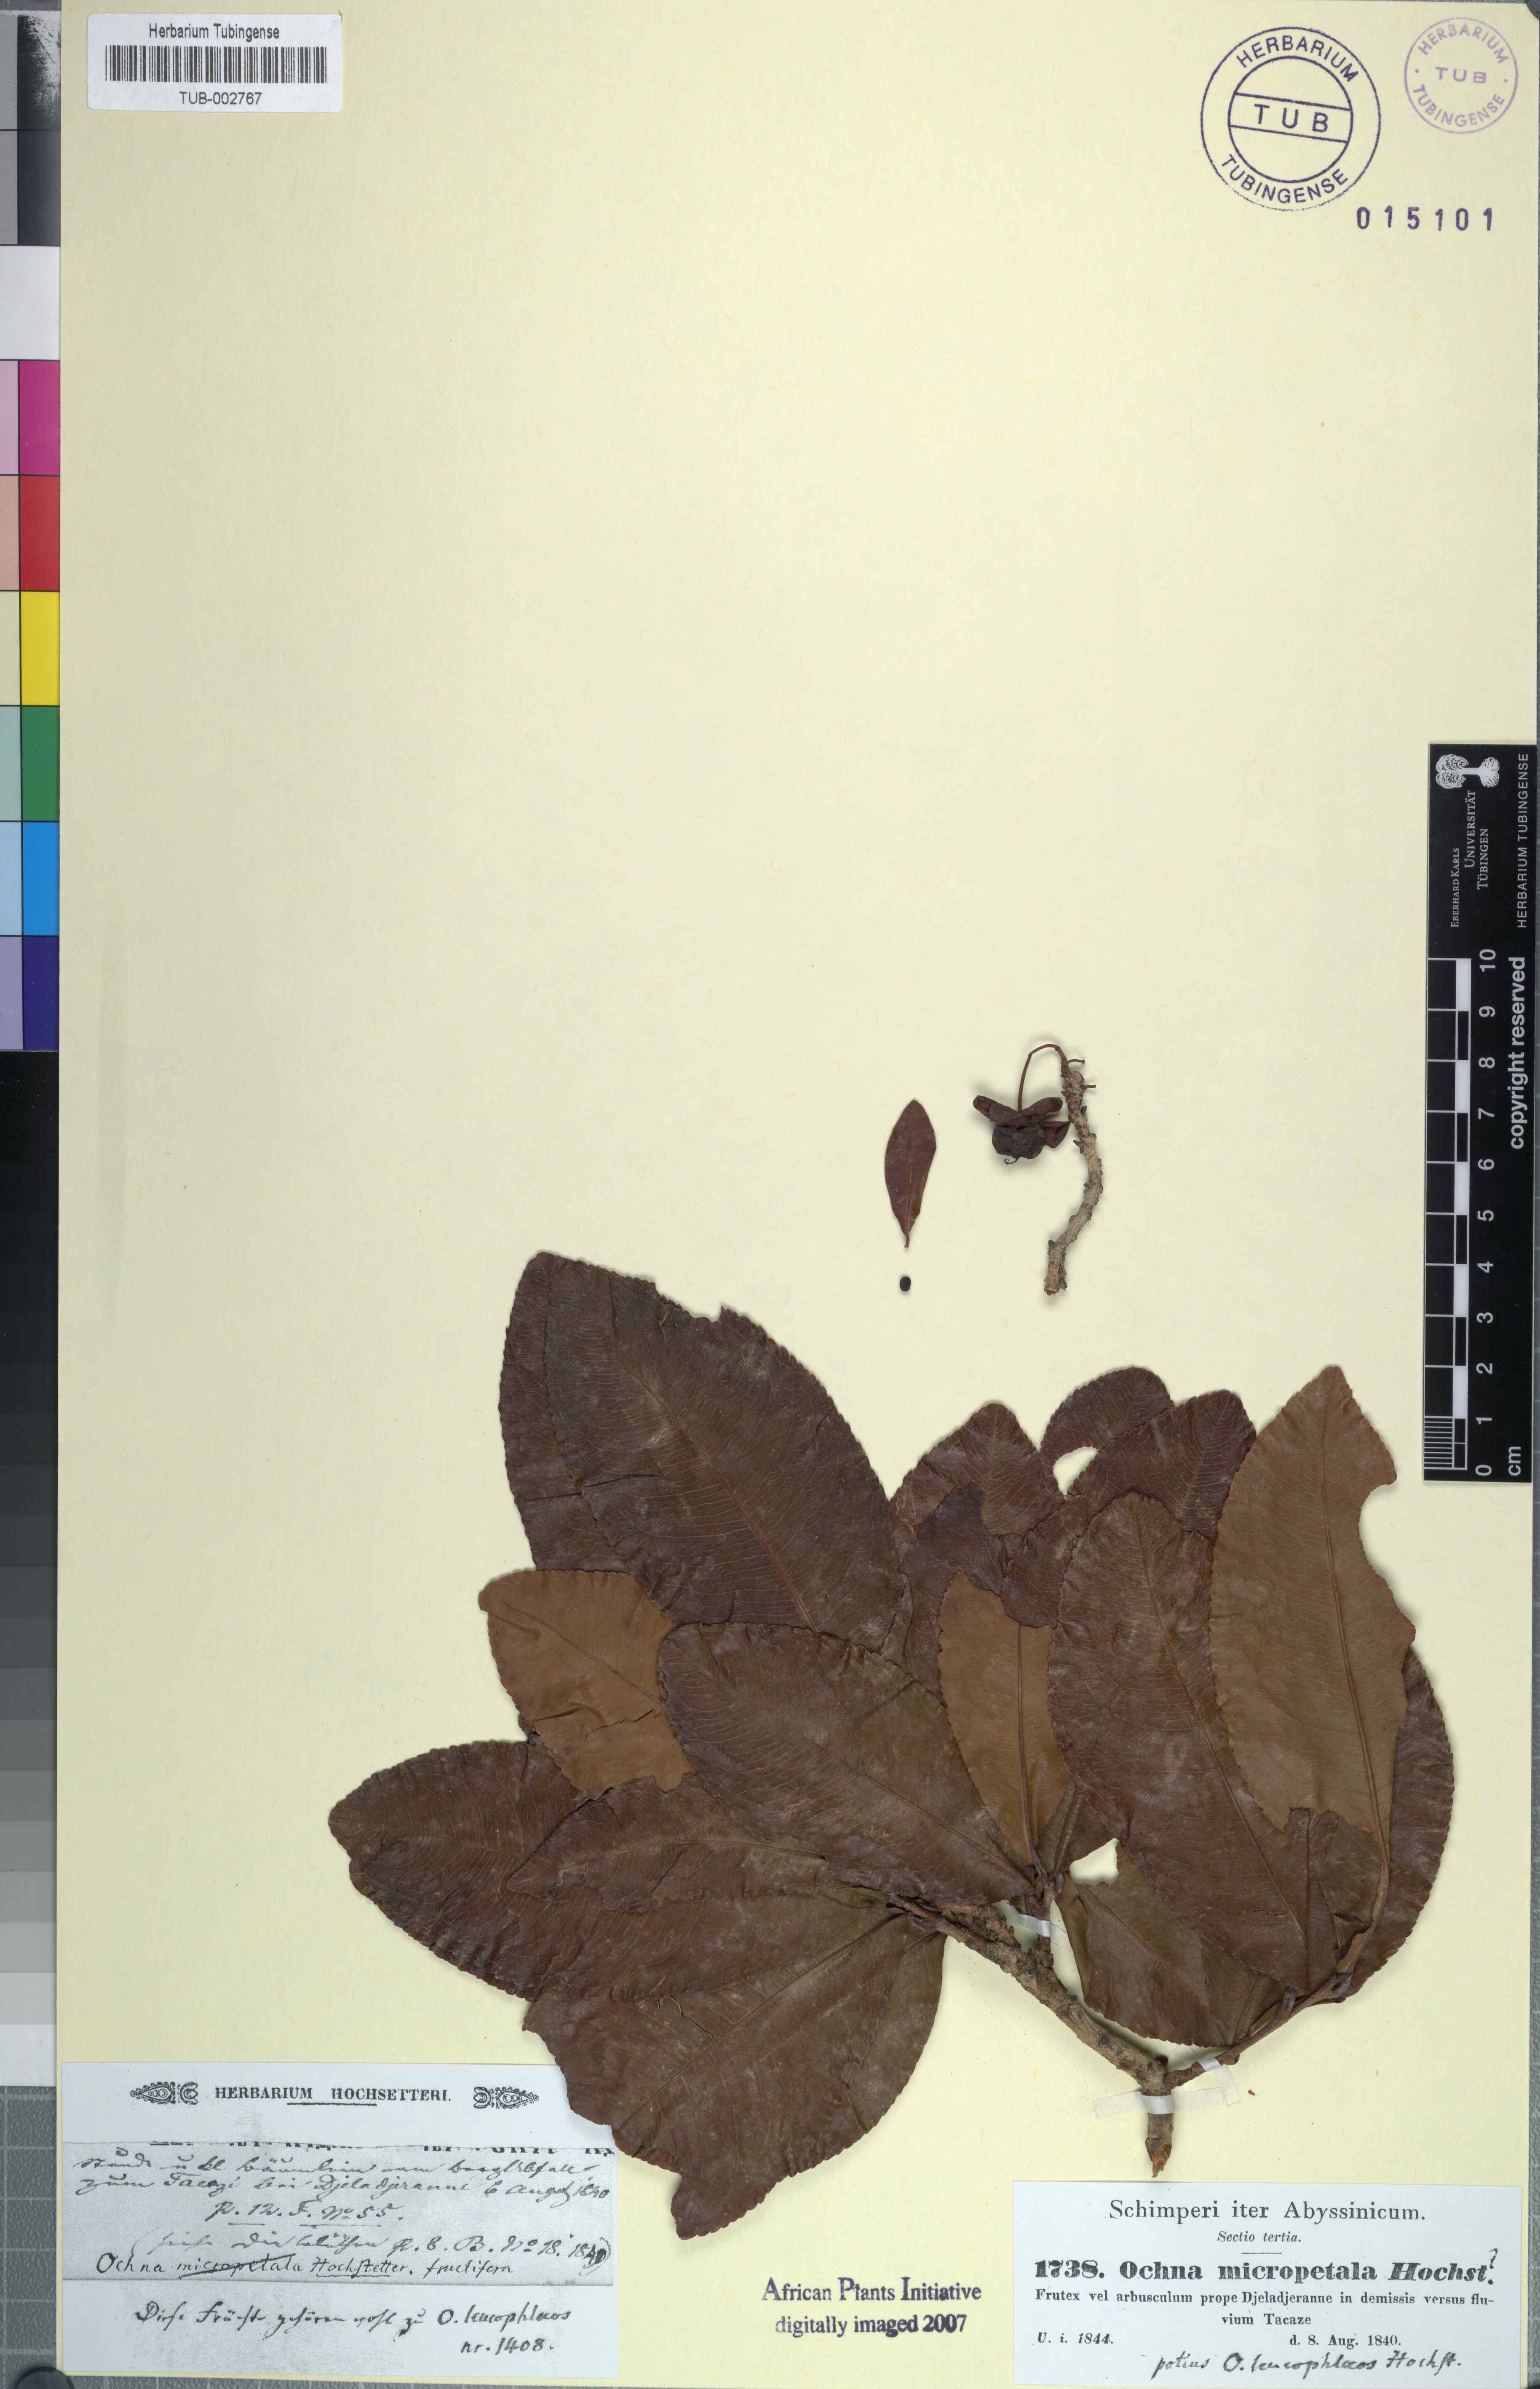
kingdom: Plantae
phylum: Tracheophyta
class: Magnoliopsida
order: Malpighiales
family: Ochnaceae
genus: Ochna
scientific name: Ochna leucophloeos
